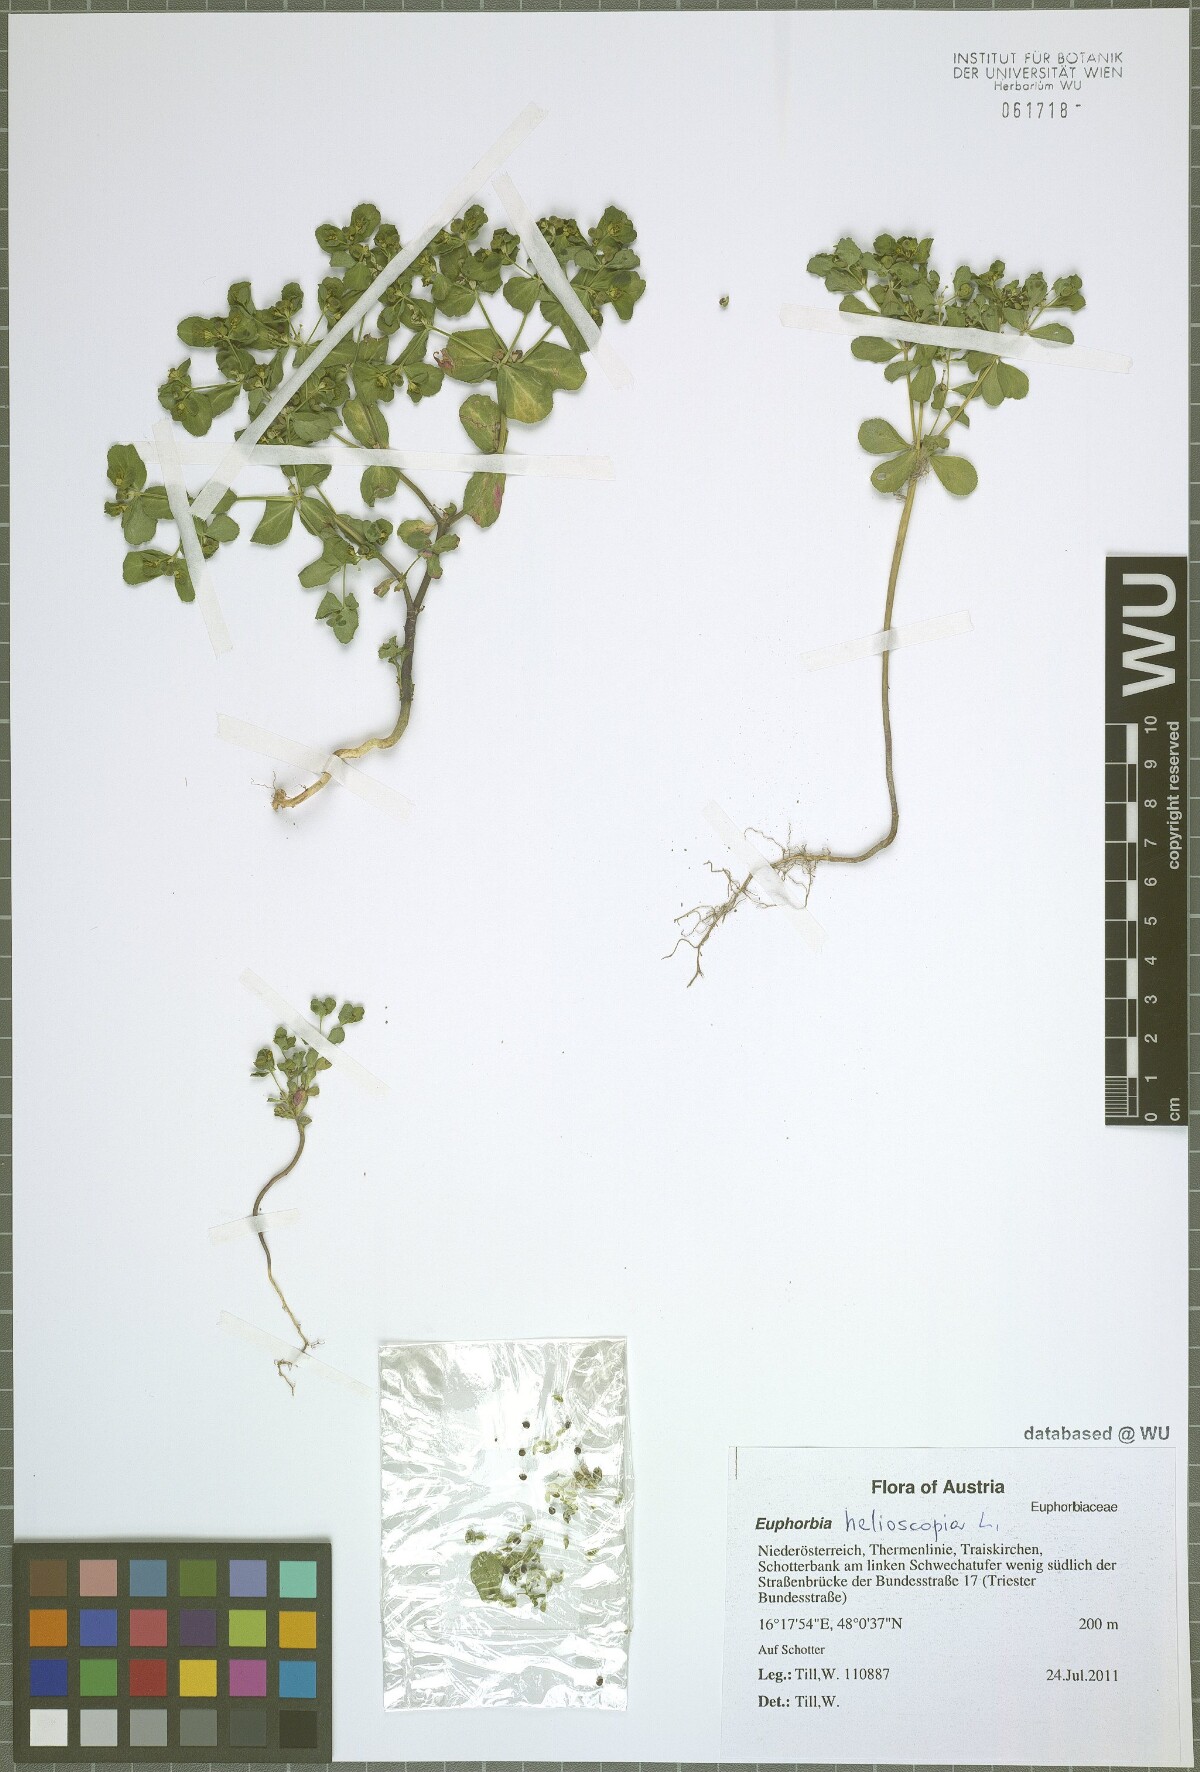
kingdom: Plantae
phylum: Tracheophyta
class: Magnoliopsida
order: Malpighiales
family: Euphorbiaceae
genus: Euphorbia
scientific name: Euphorbia helioscopia
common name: Sun spurge
